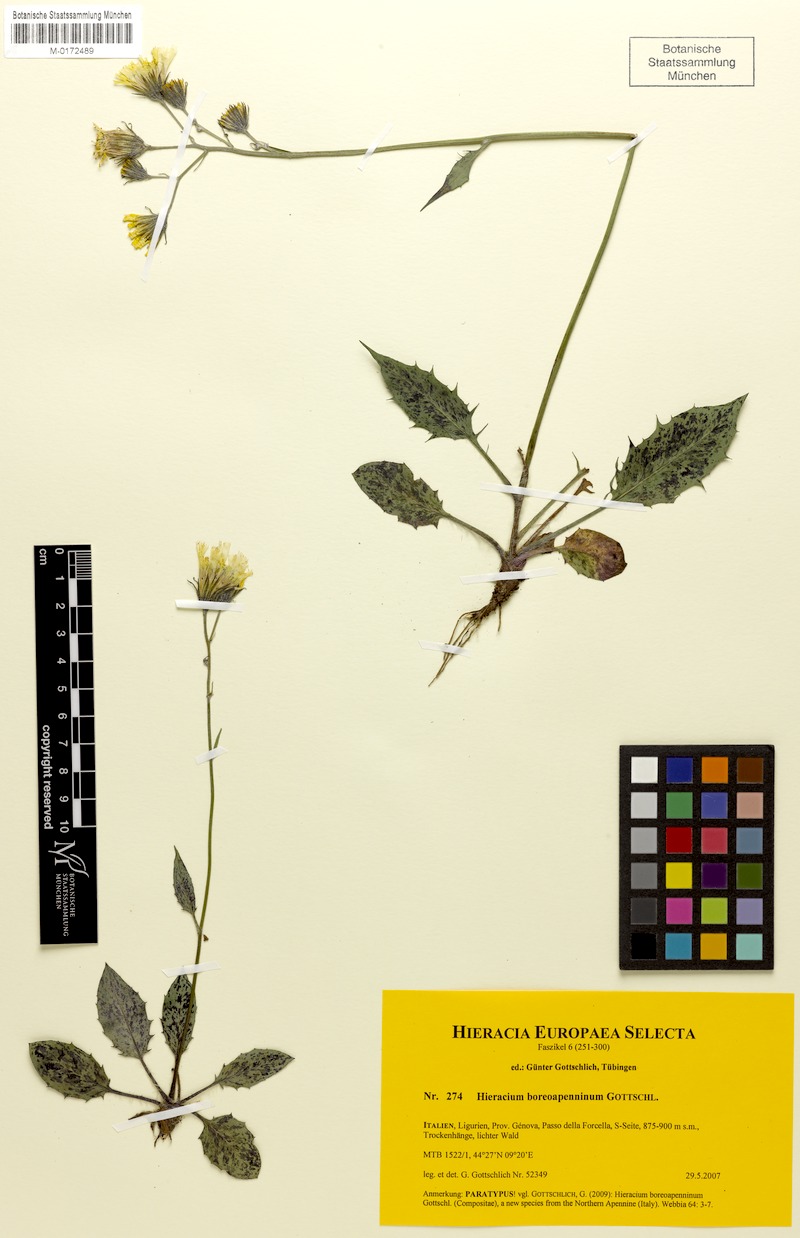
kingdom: Plantae
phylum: Tracheophyta
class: Magnoliopsida
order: Asterales
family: Asteraceae
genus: Hieracium
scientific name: Hieracium boreoapenninum
